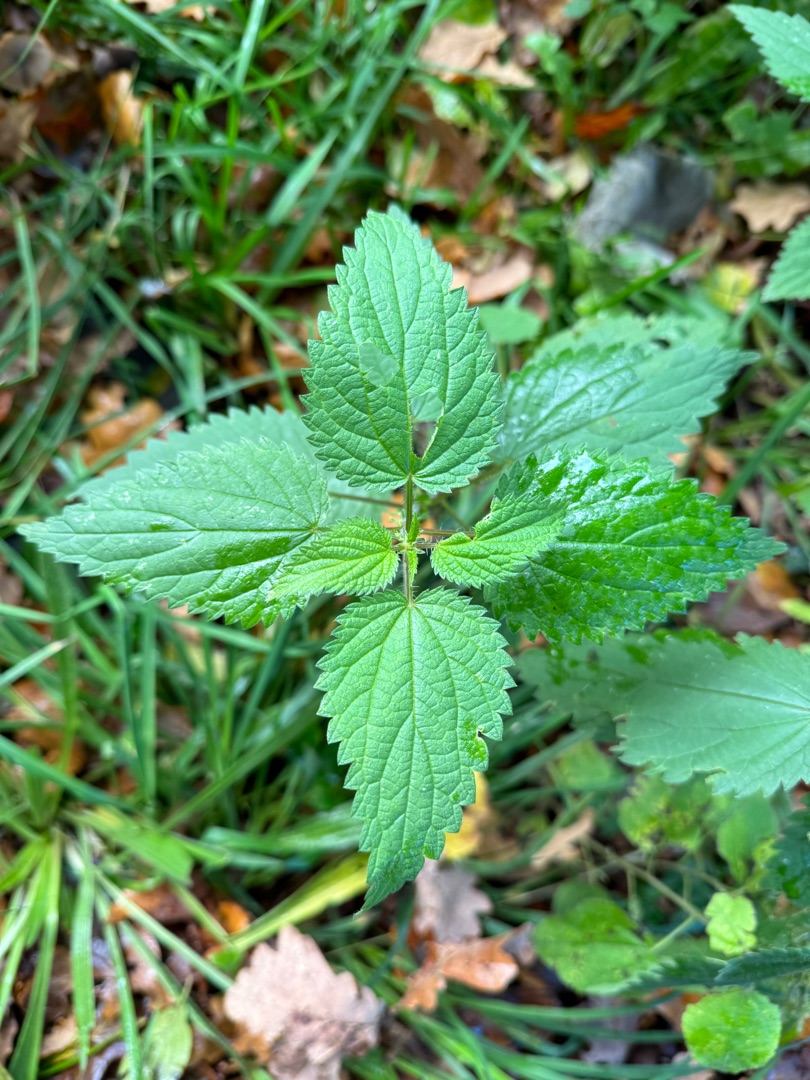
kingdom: Plantae
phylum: Tracheophyta
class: Magnoliopsida
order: Rosales
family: Urticaceae
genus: Urtica
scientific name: Urtica dioica
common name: Stor nælde
